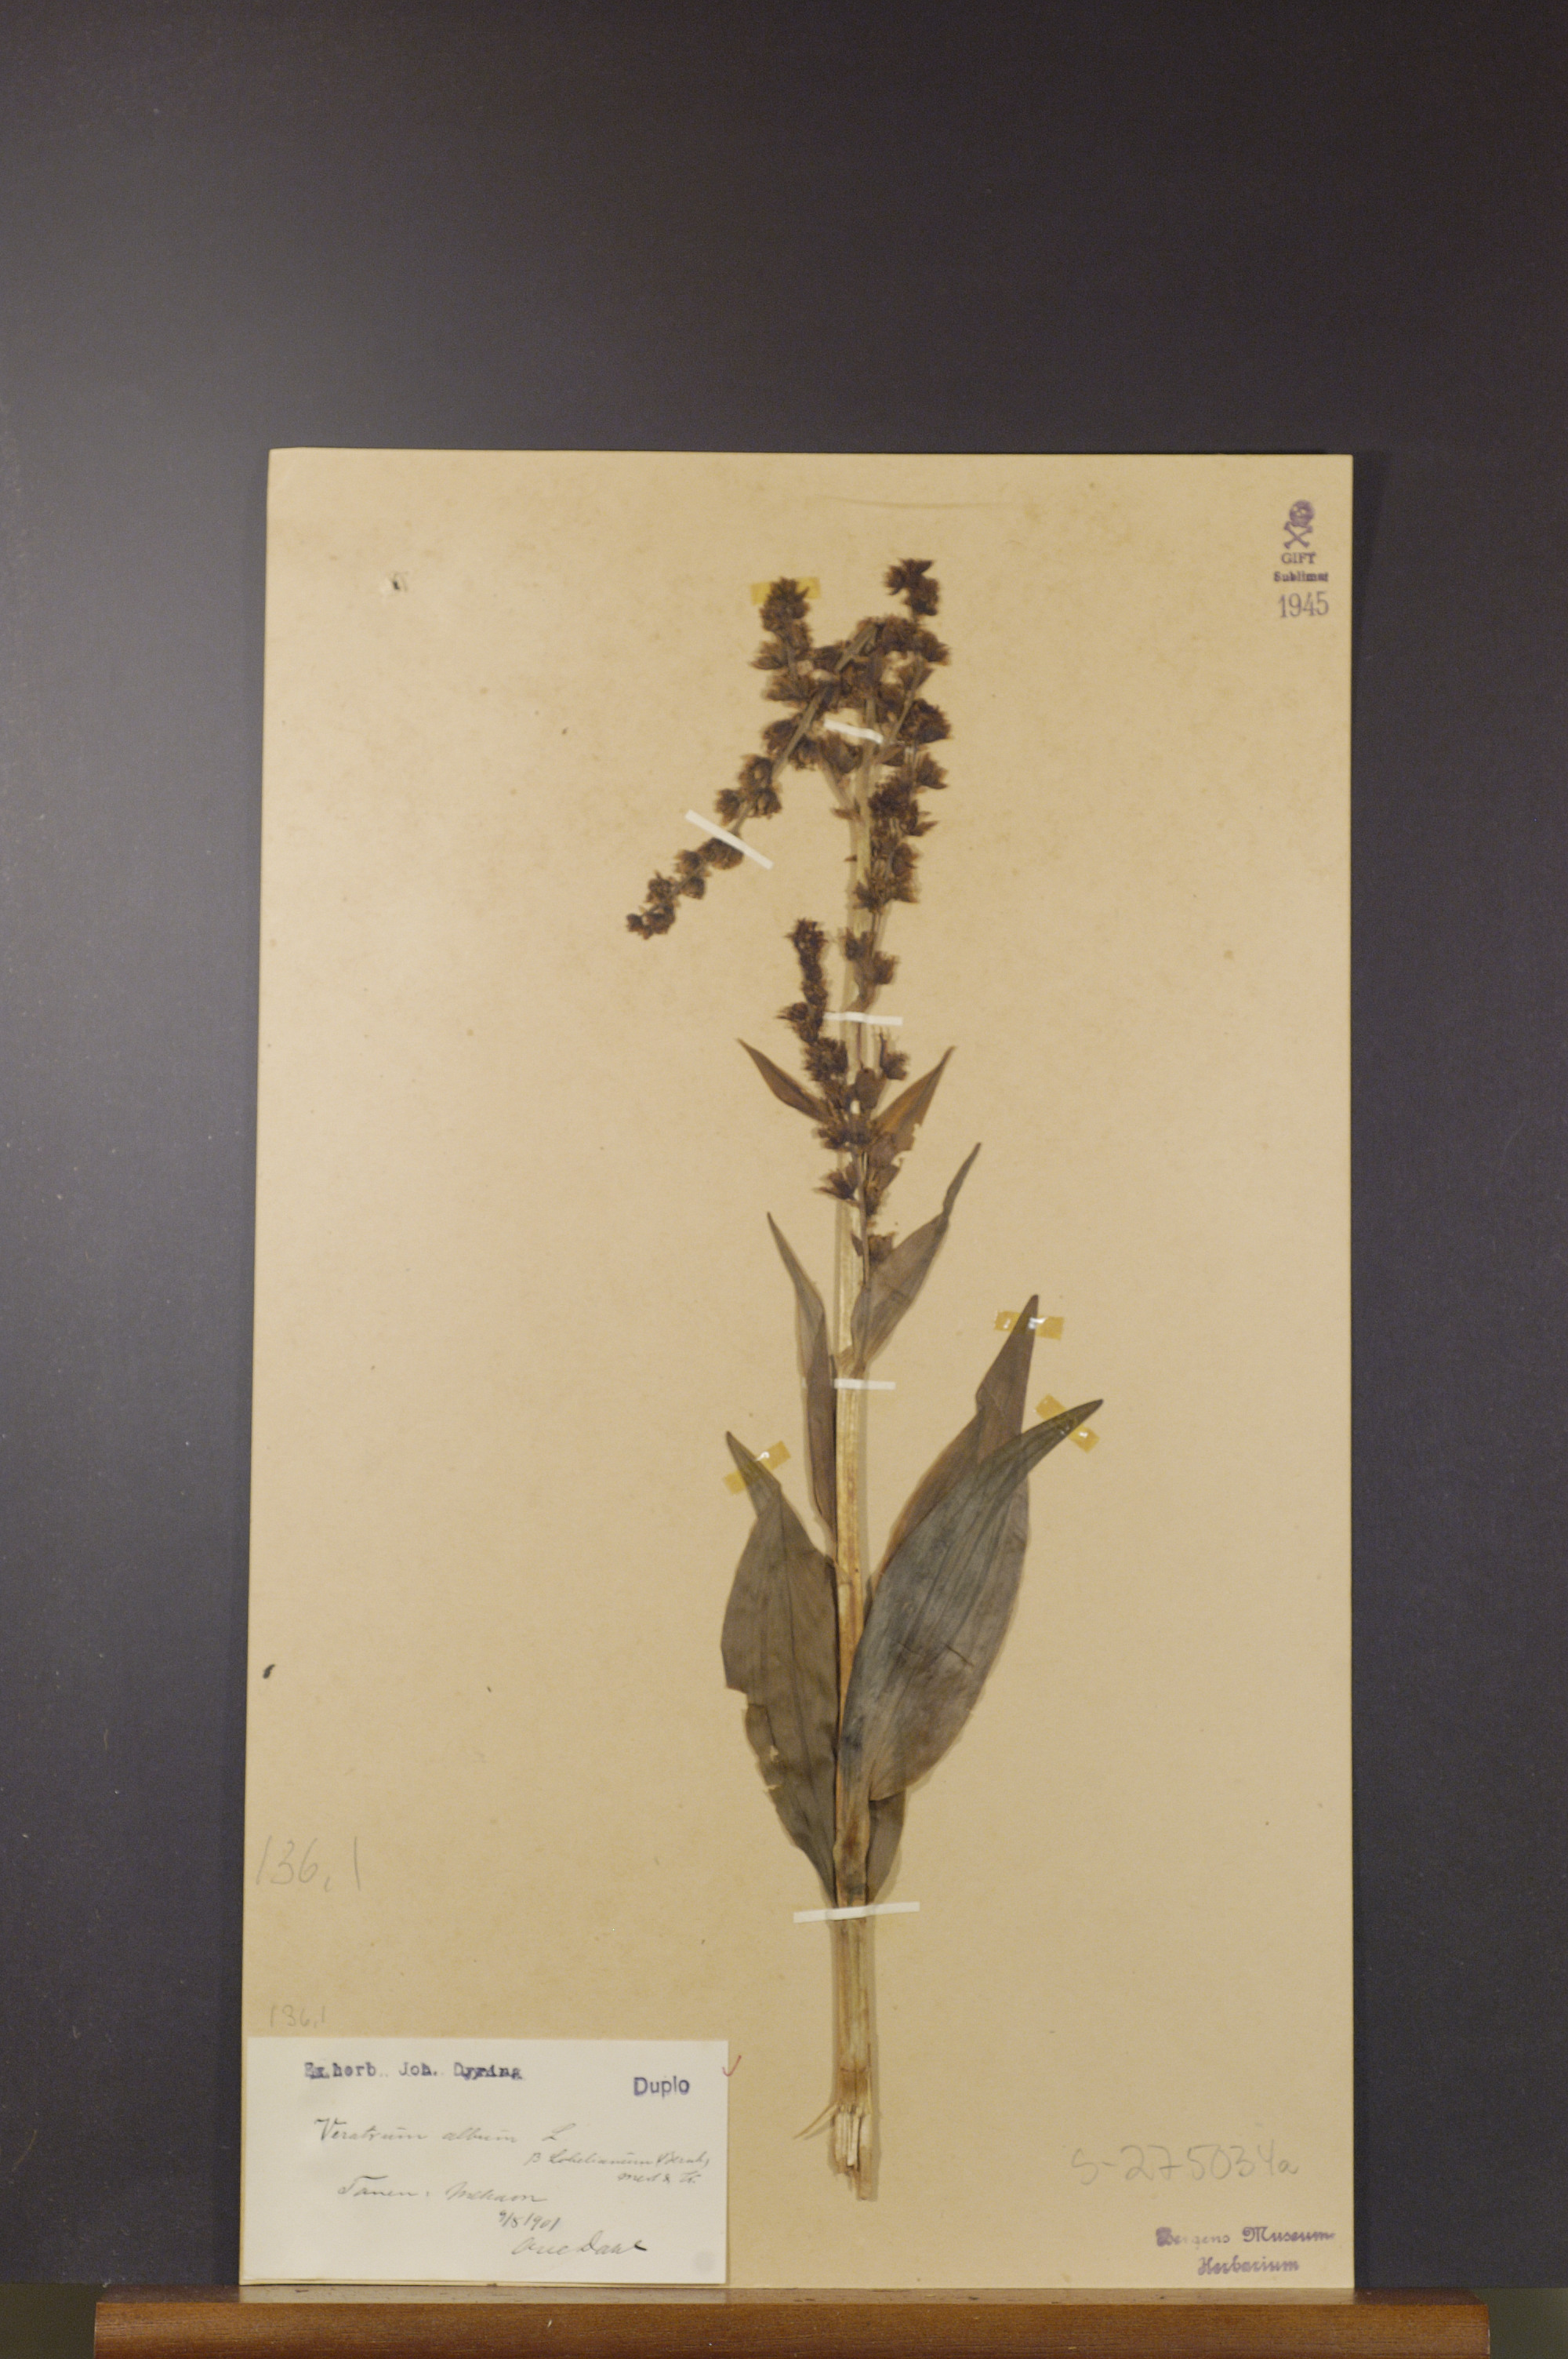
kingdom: Plantae
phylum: Tracheophyta
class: Liliopsida
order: Liliales
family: Melanthiaceae
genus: Veratrum
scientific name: Veratrum lobelianum
